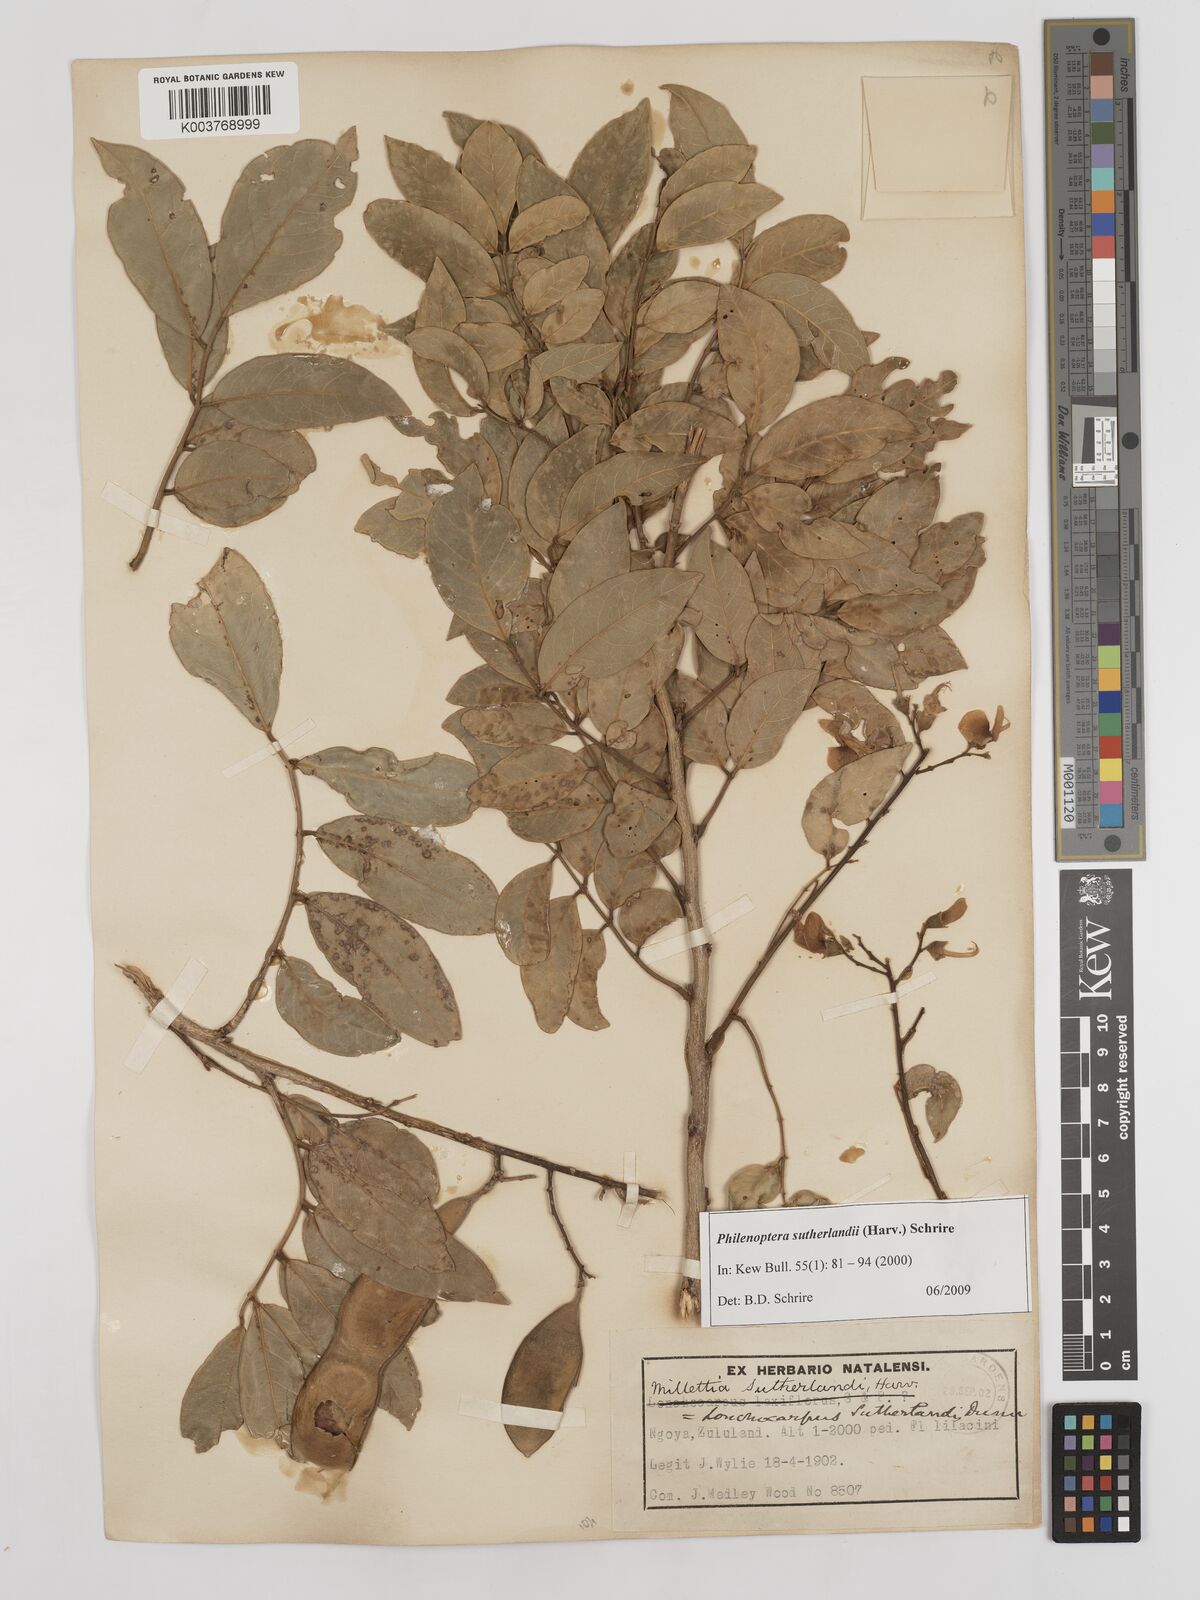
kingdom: Plantae
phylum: Tracheophyta
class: Magnoliopsida
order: Fabales
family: Fabaceae
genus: Philenoptera
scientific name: Philenoptera sutherlandii
